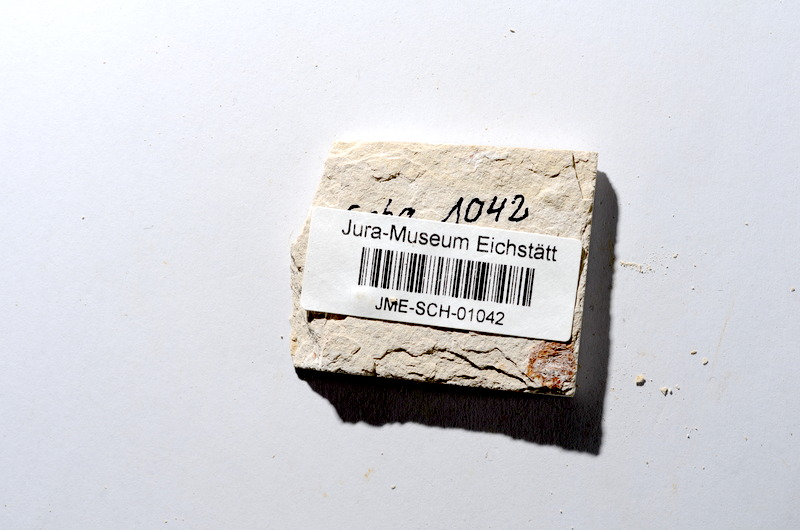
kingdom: Animalia
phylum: Chordata
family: Ascalaboidae
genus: Tharsis
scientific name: Tharsis dubius
